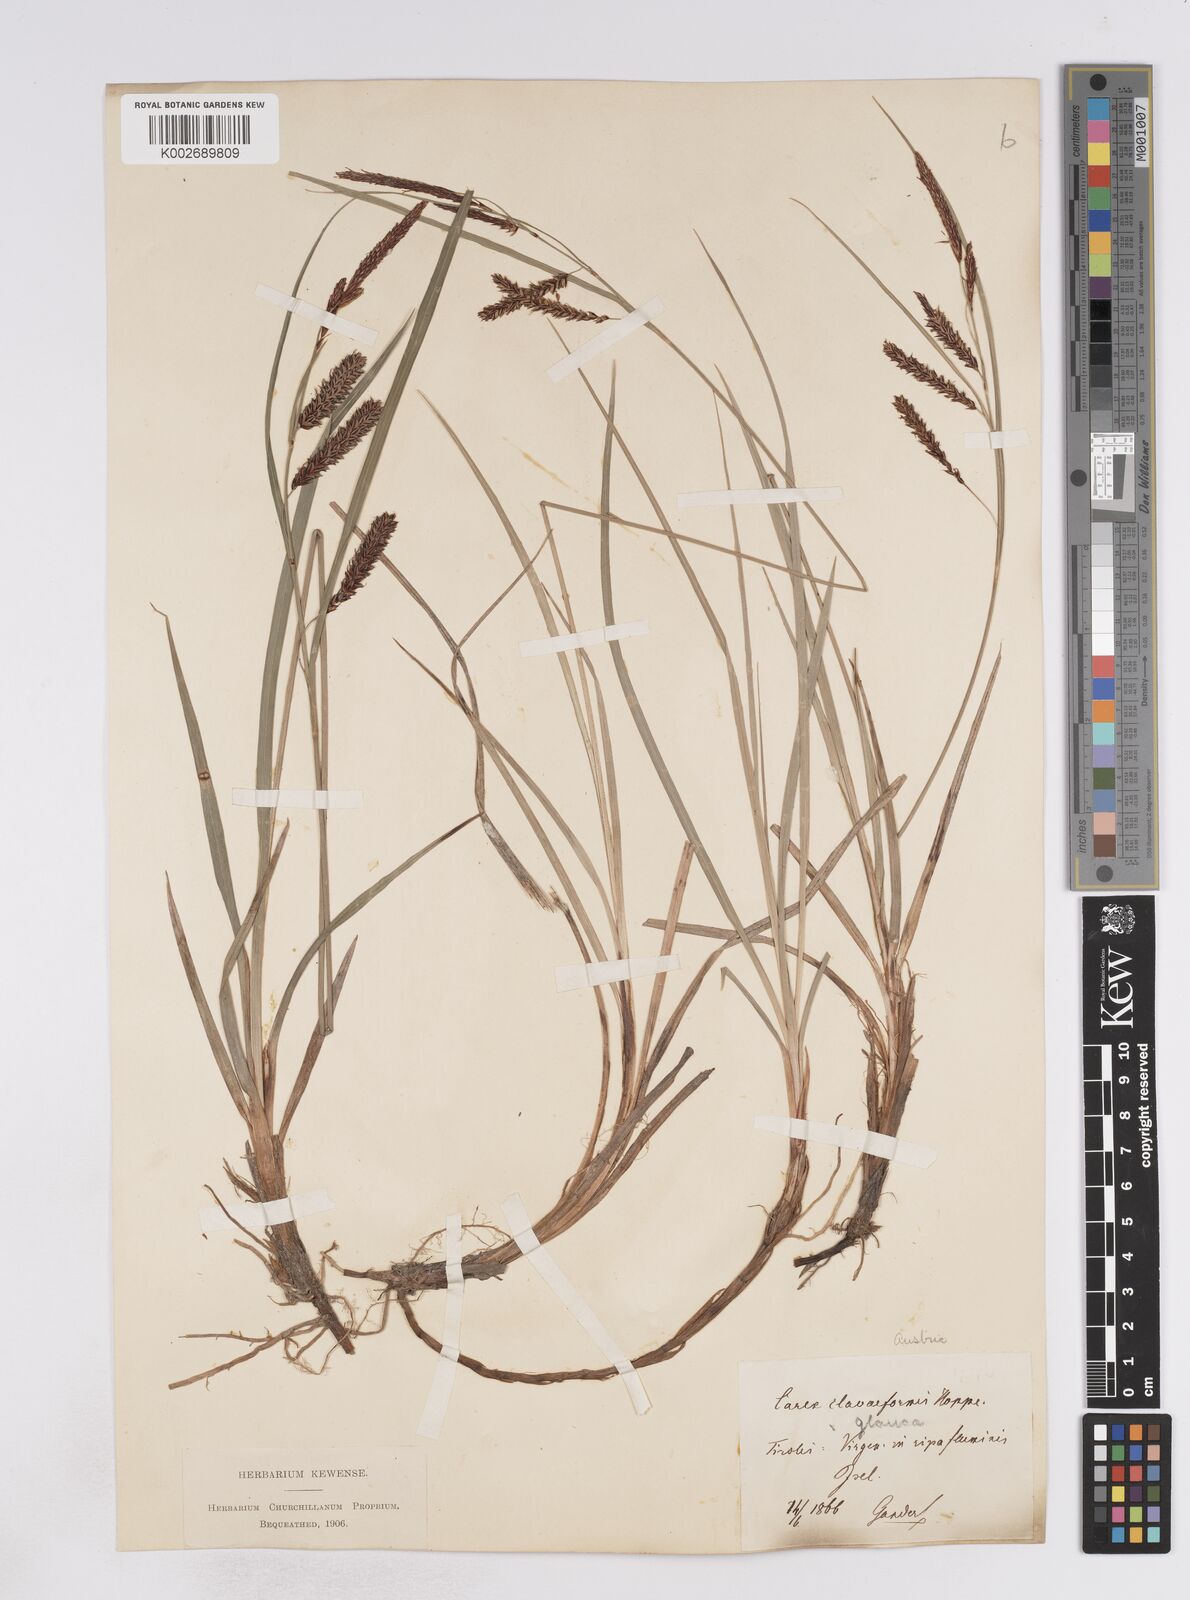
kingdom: Plantae
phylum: Tracheophyta
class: Liliopsida
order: Poales
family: Cyperaceae
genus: Carex
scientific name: Carex flacca
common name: Glaucous sedge
